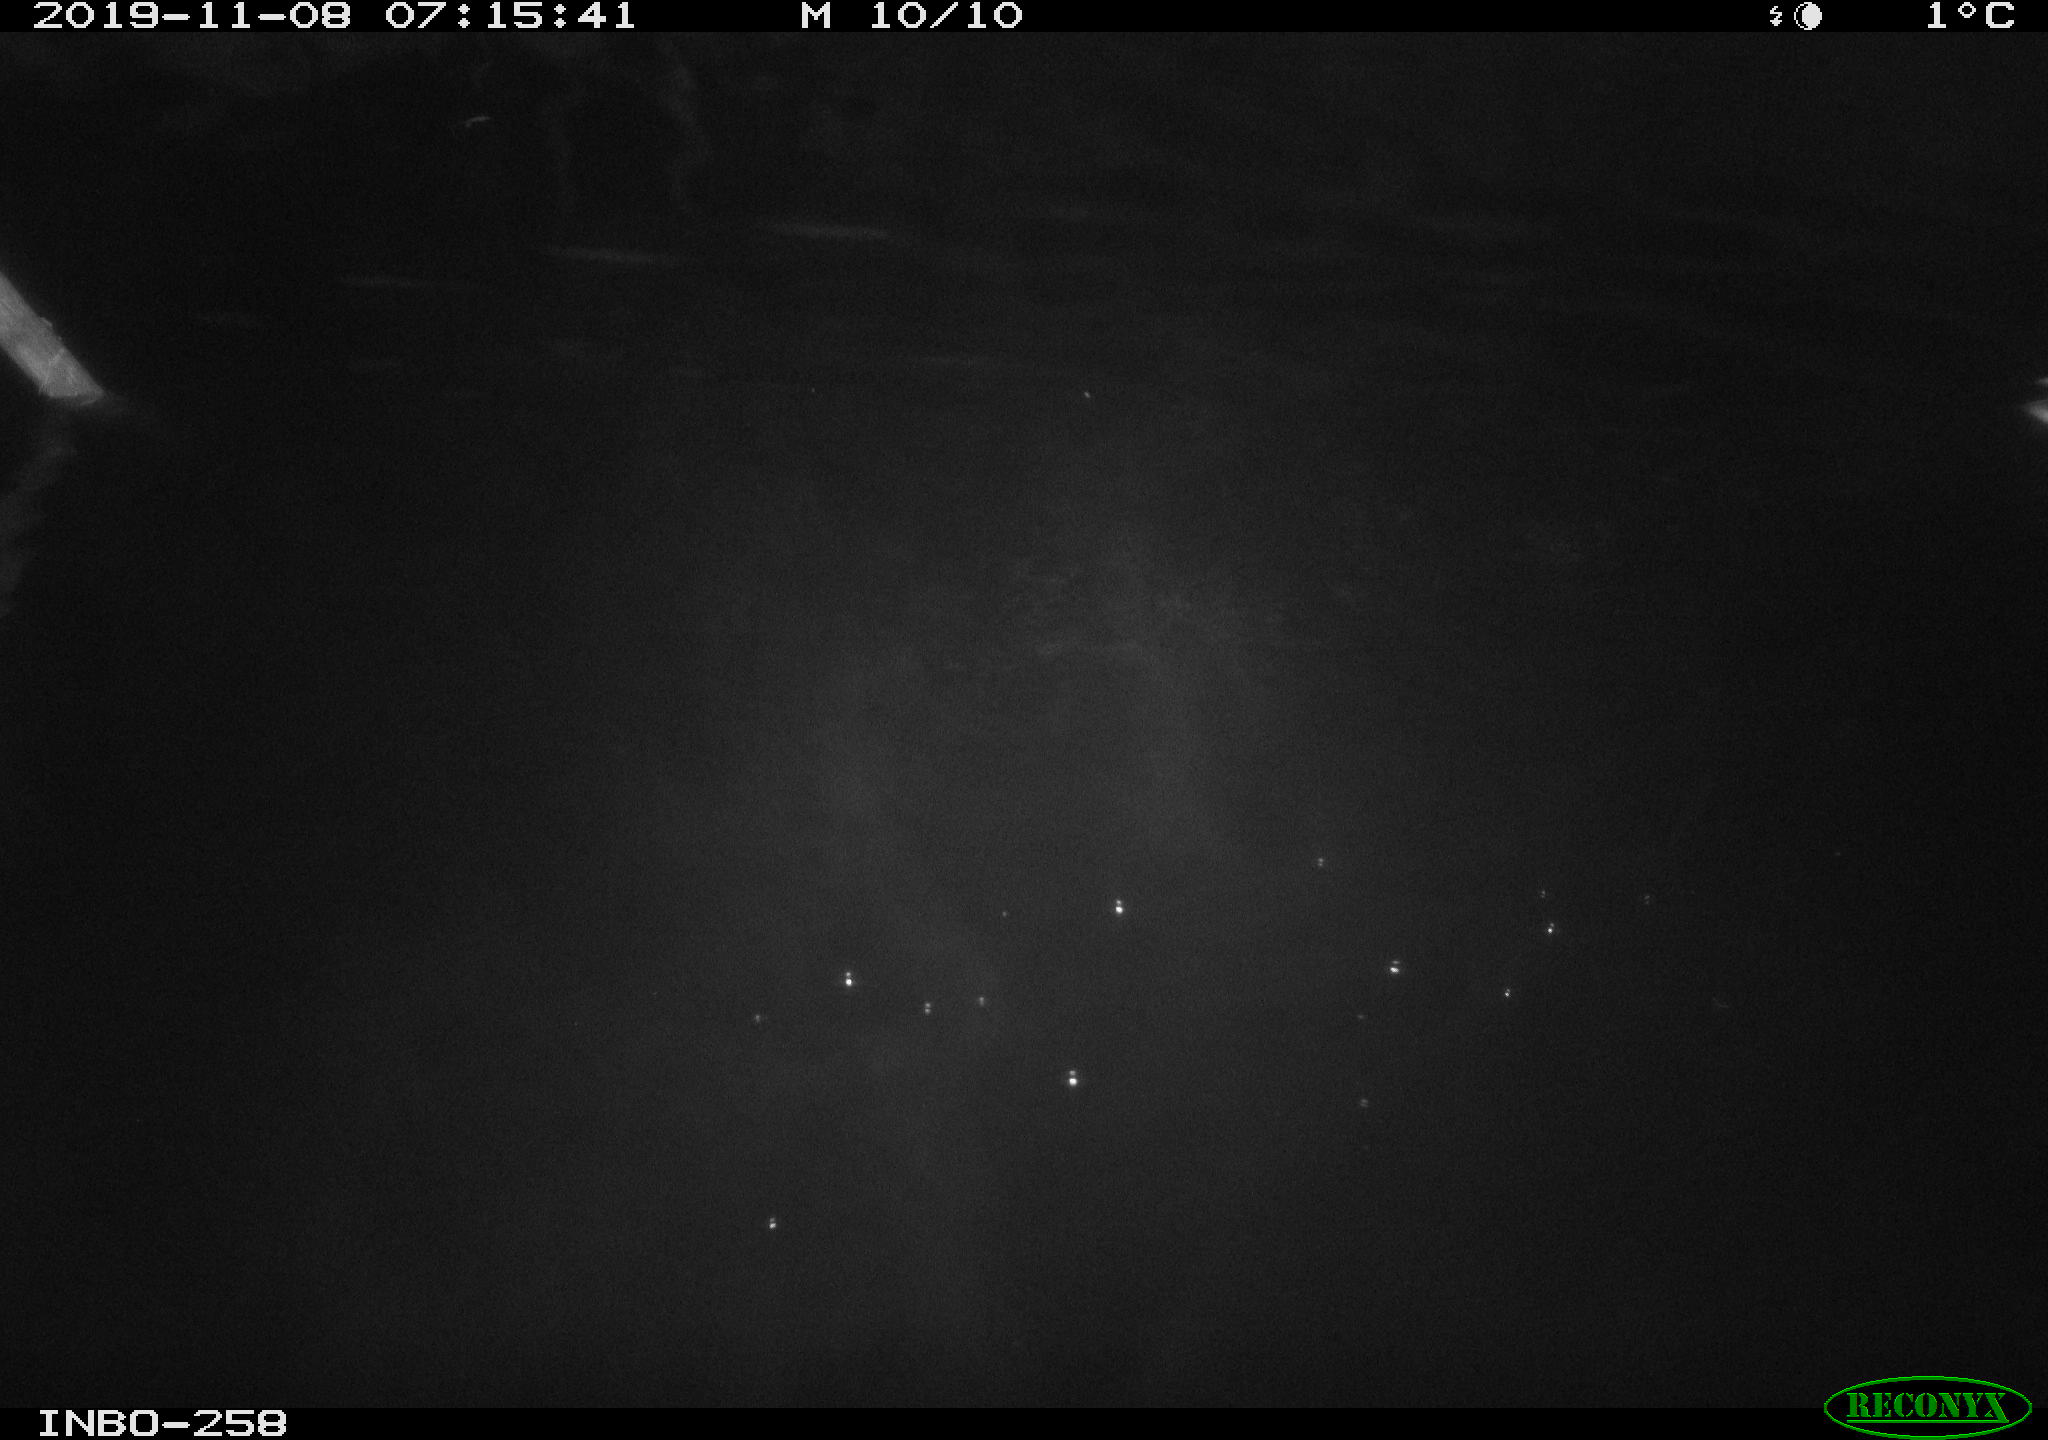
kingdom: Animalia
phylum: Chordata
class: Aves
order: Anseriformes
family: Anatidae
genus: Anas
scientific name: Anas platyrhynchos
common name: Mallard
